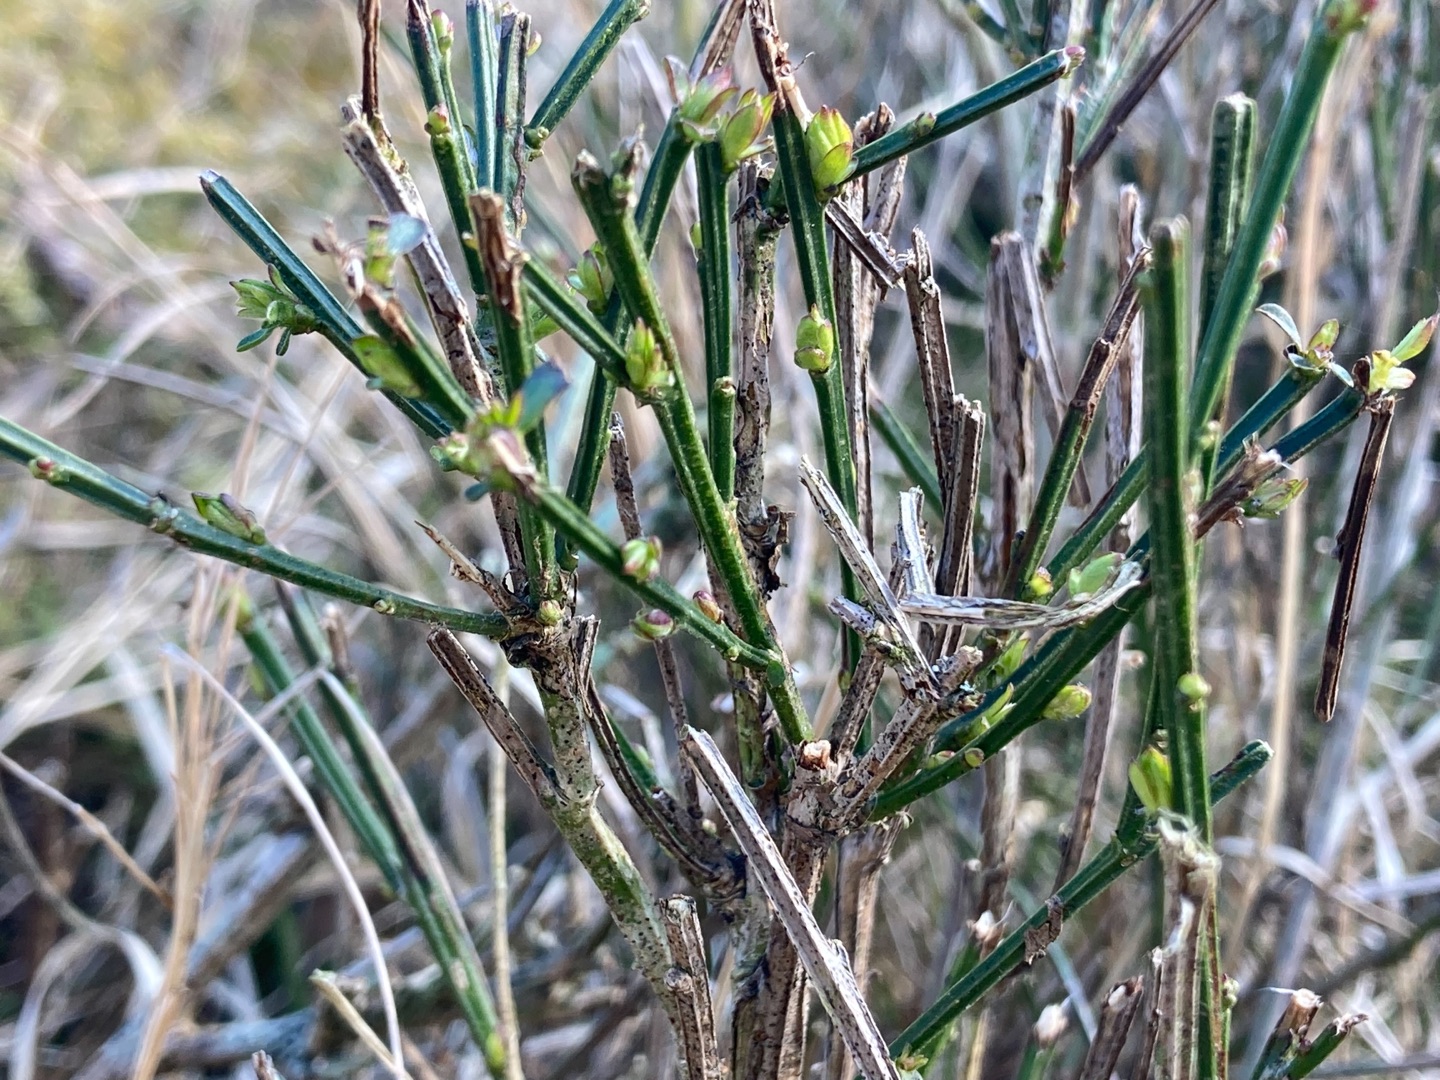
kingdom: Plantae
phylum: Tracheophyta
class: Magnoliopsida
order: Fabales
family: Fabaceae
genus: Cytisus
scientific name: Cytisus scoparius
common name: Almindelig gyvel
